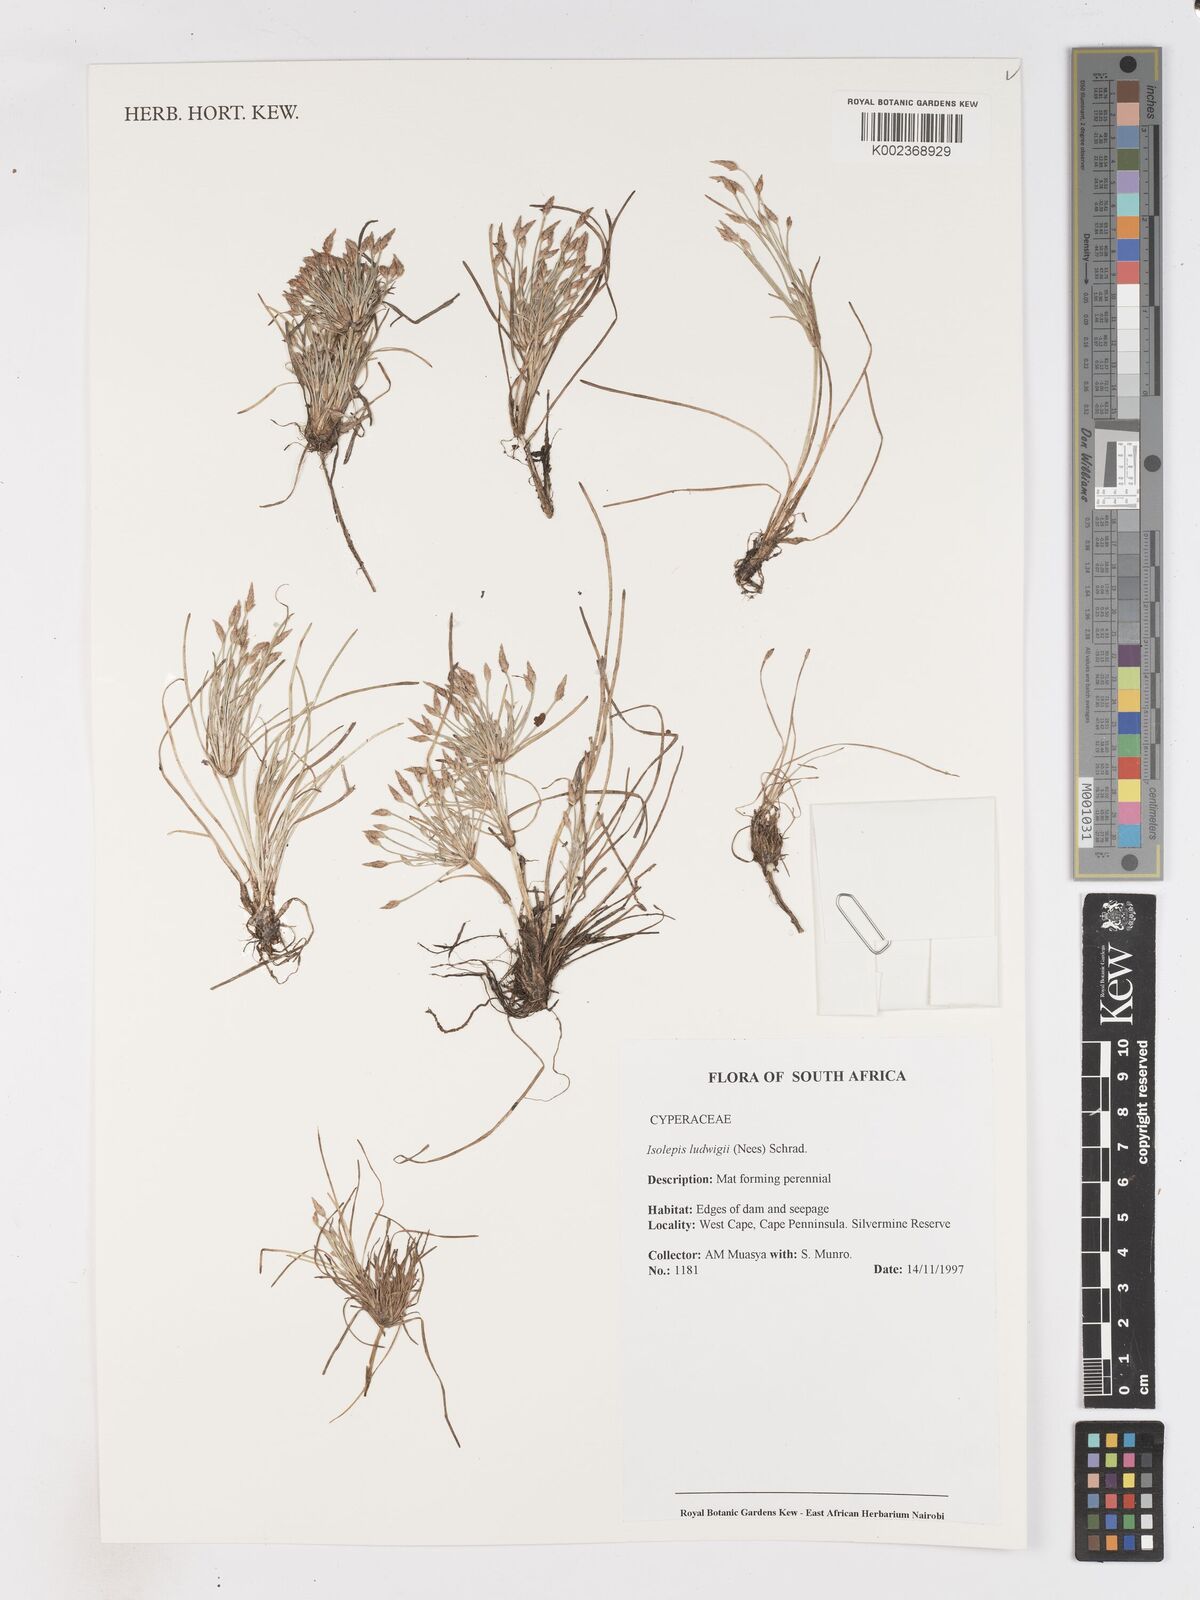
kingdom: Plantae
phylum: Tracheophyta
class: Liliopsida
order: Poales
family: Cyperaceae
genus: Isolepis
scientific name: Isolepis ludwigii
